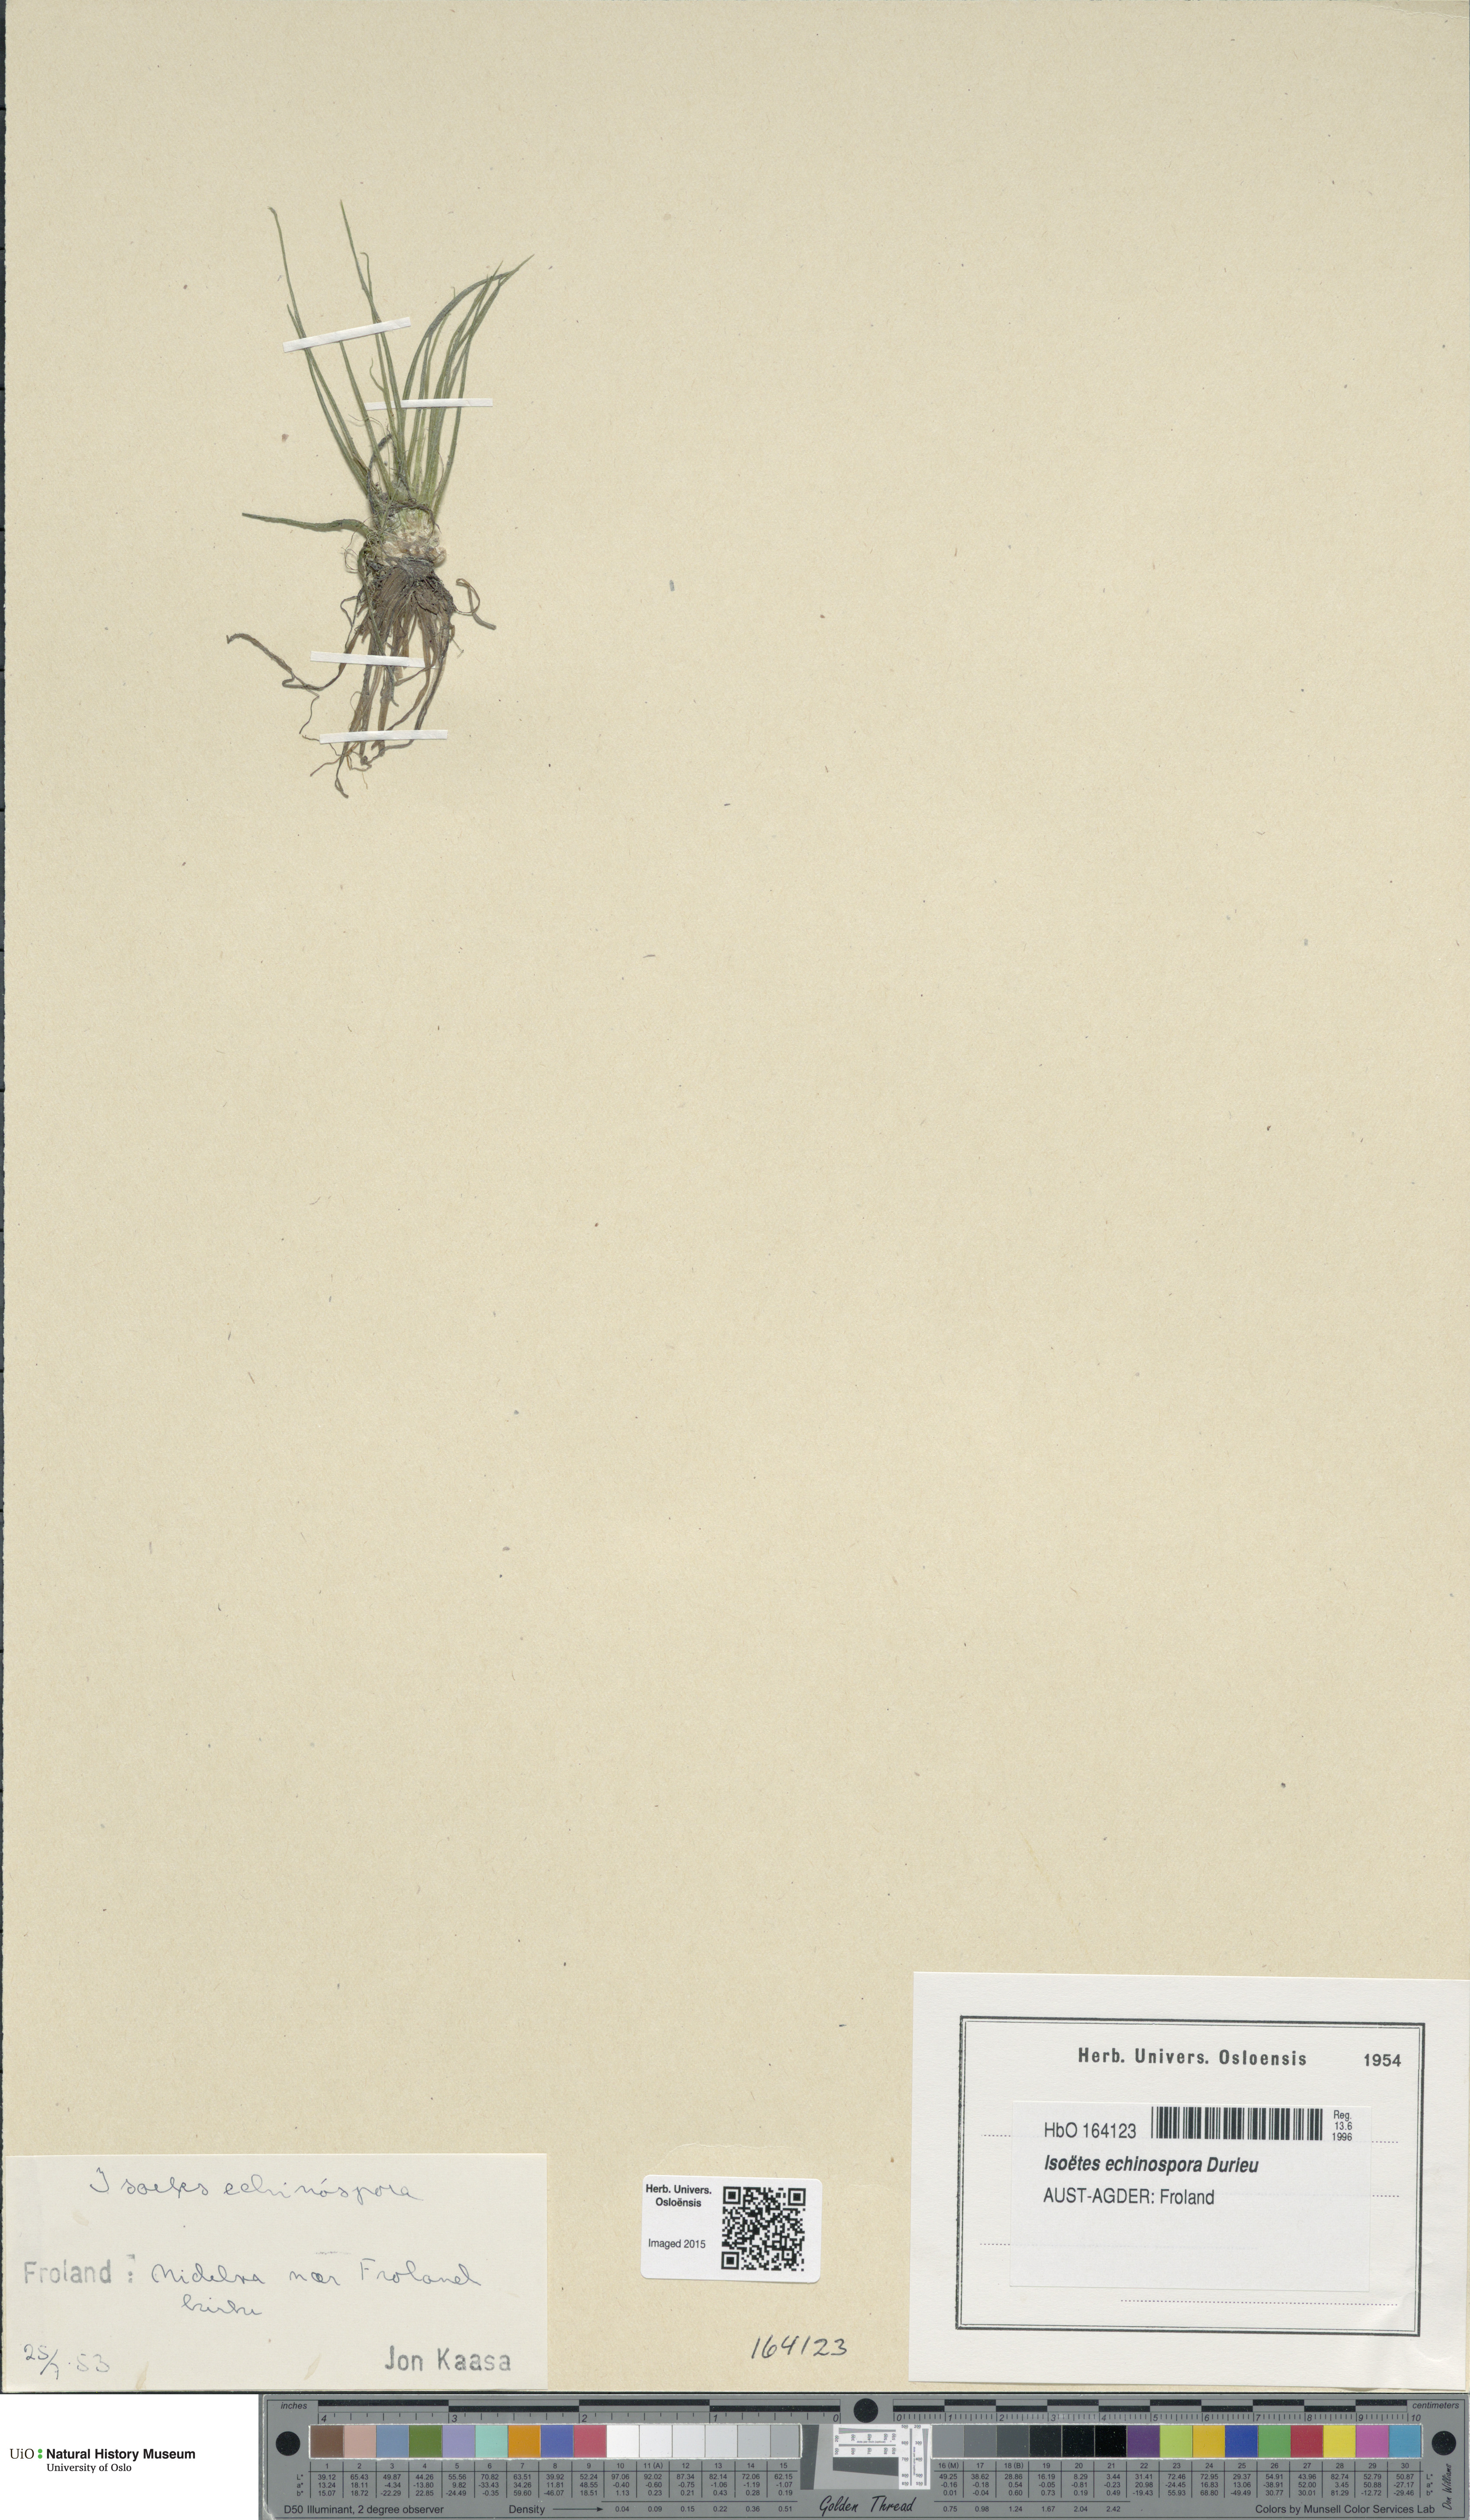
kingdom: Plantae
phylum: Tracheophyta
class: Lycopodiopsida
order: Isoetales
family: Isoetaceae
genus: Isoetes
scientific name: Isoetes echinospora
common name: Spring quillwort
